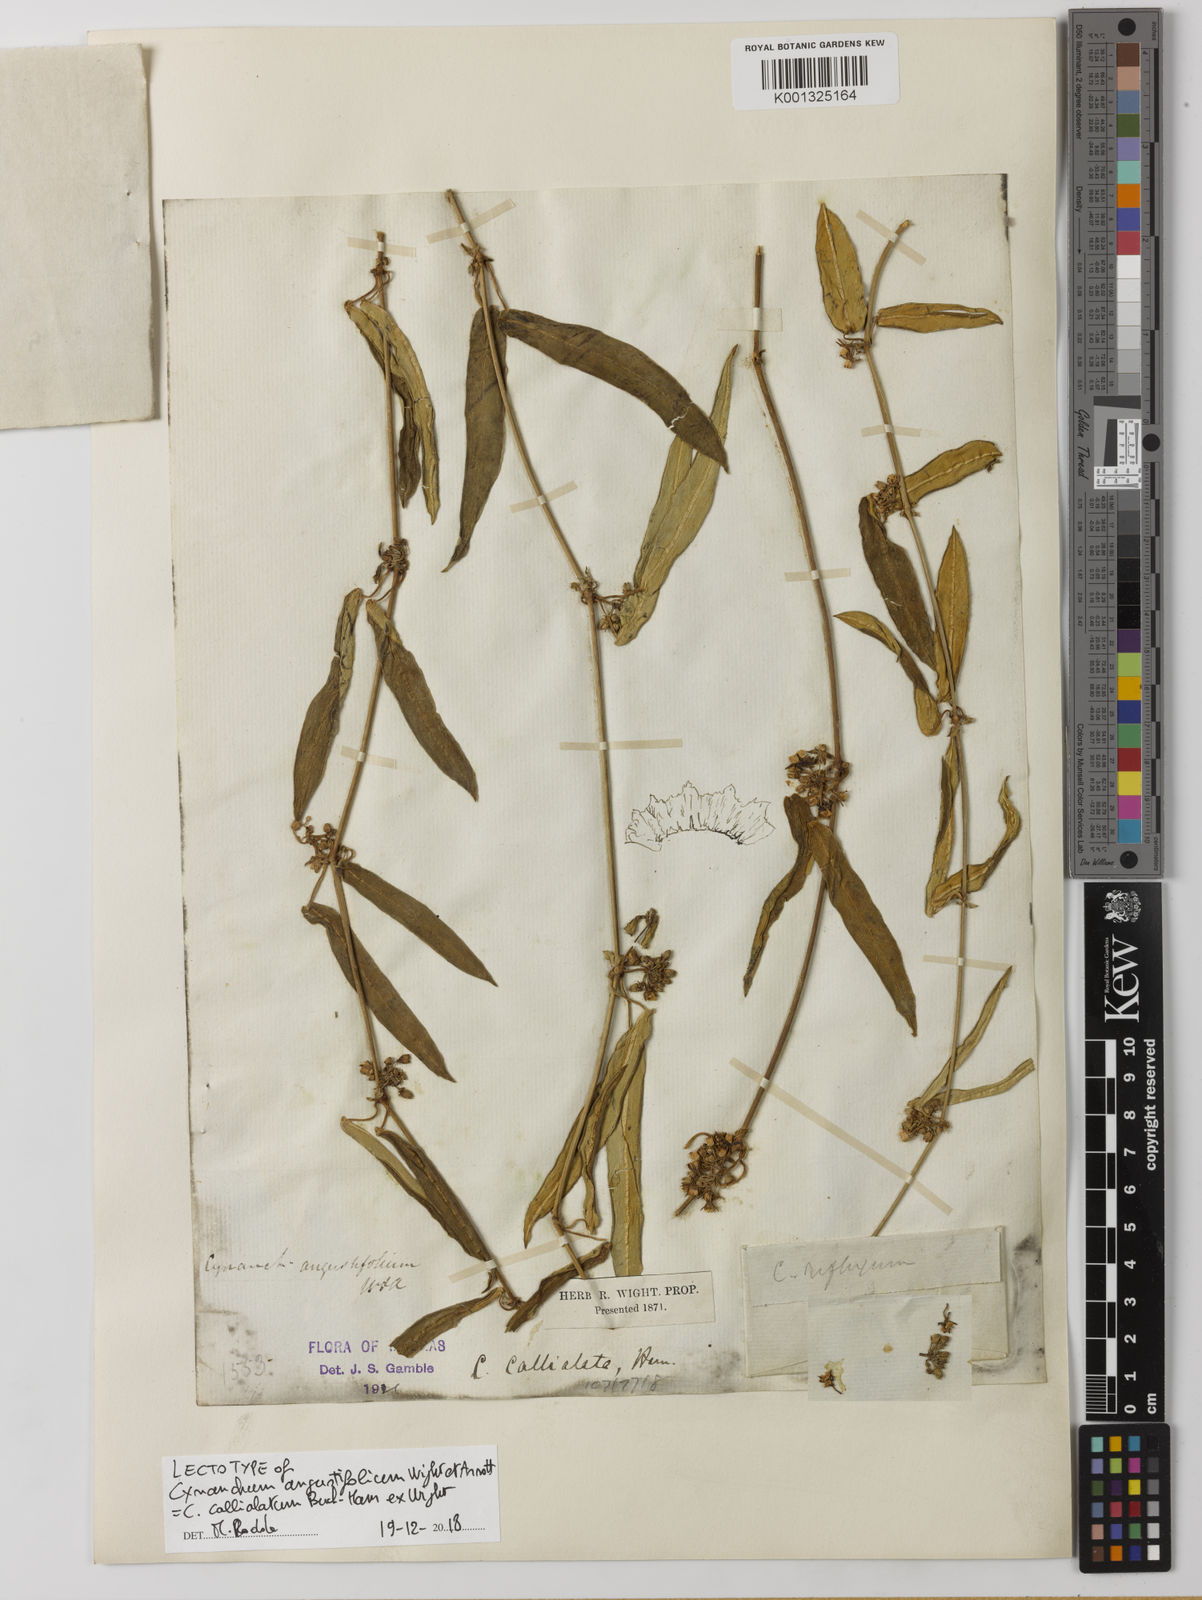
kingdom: Plantae
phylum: Tracheophyta
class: Magnoliopsida
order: Gentianales
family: Apocynaceae
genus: Cynanchum
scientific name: Cynanchum tunicatum
